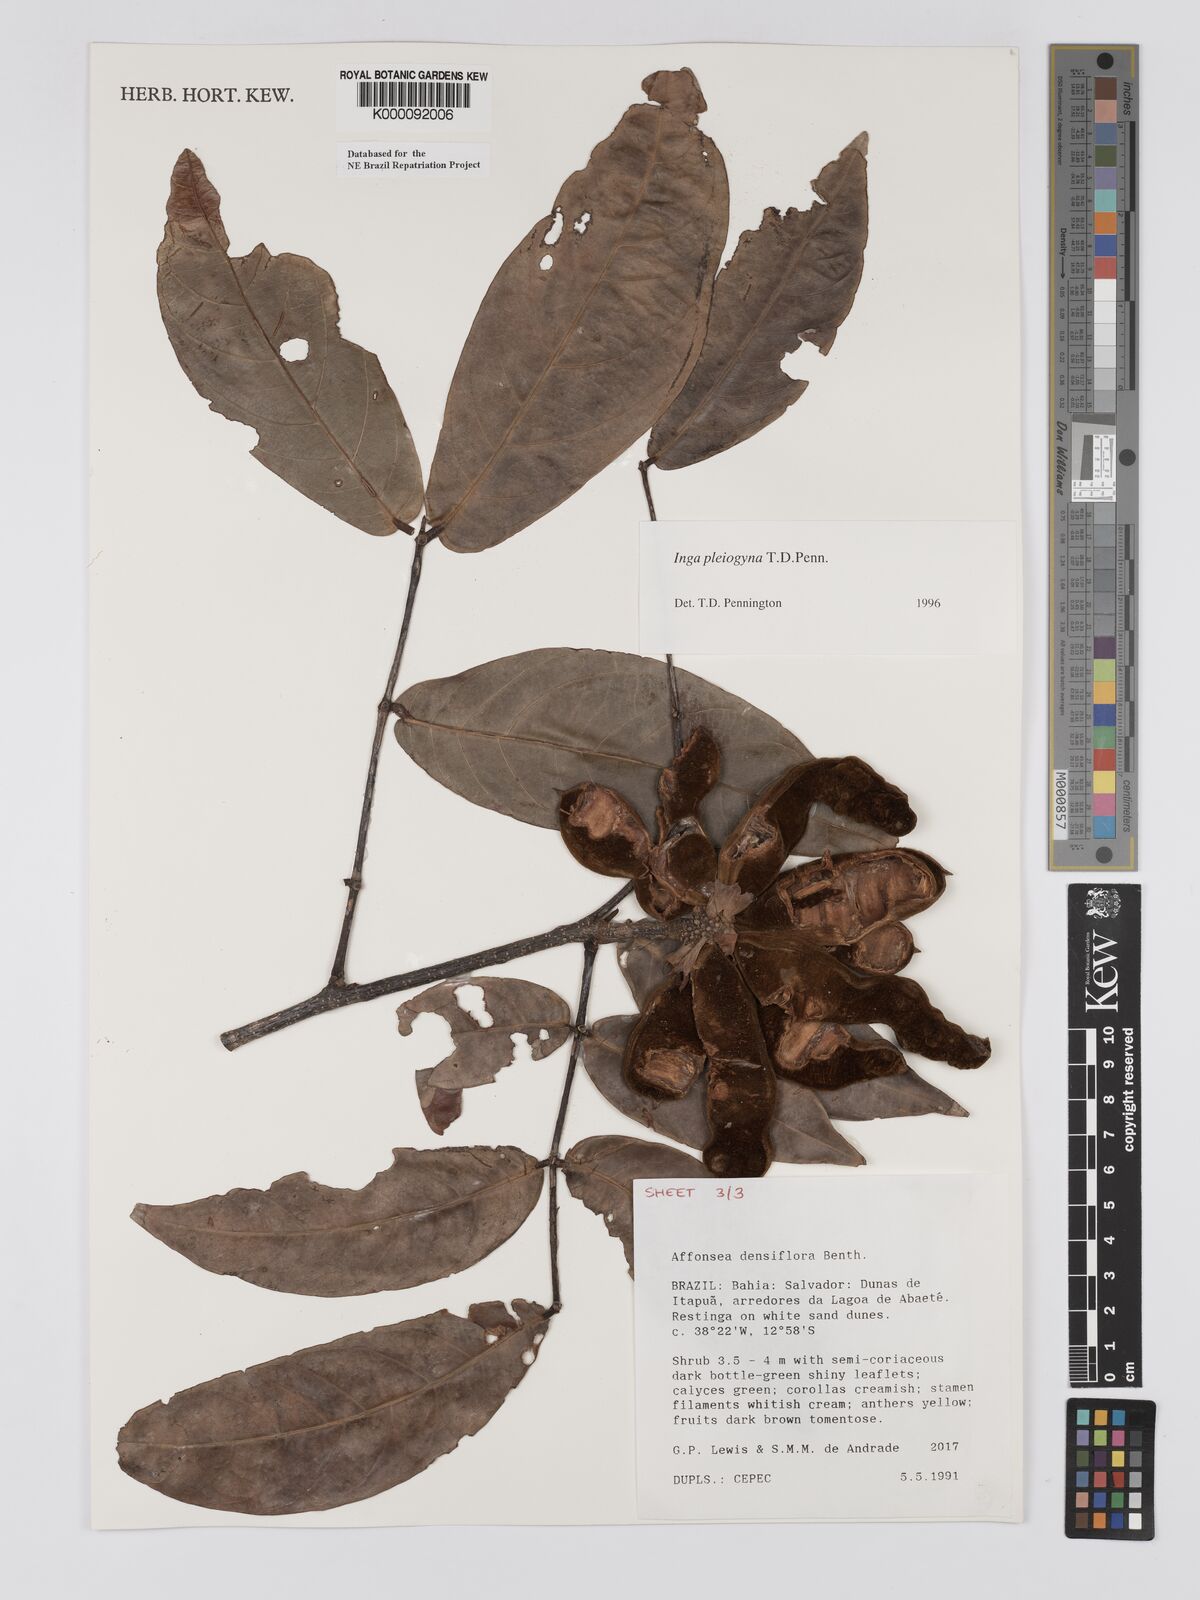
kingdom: Plantae
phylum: Tracheophyta
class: Magnoliopsida
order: Fabales
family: Fabaceae
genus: Inga
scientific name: Inga pleiogyna
